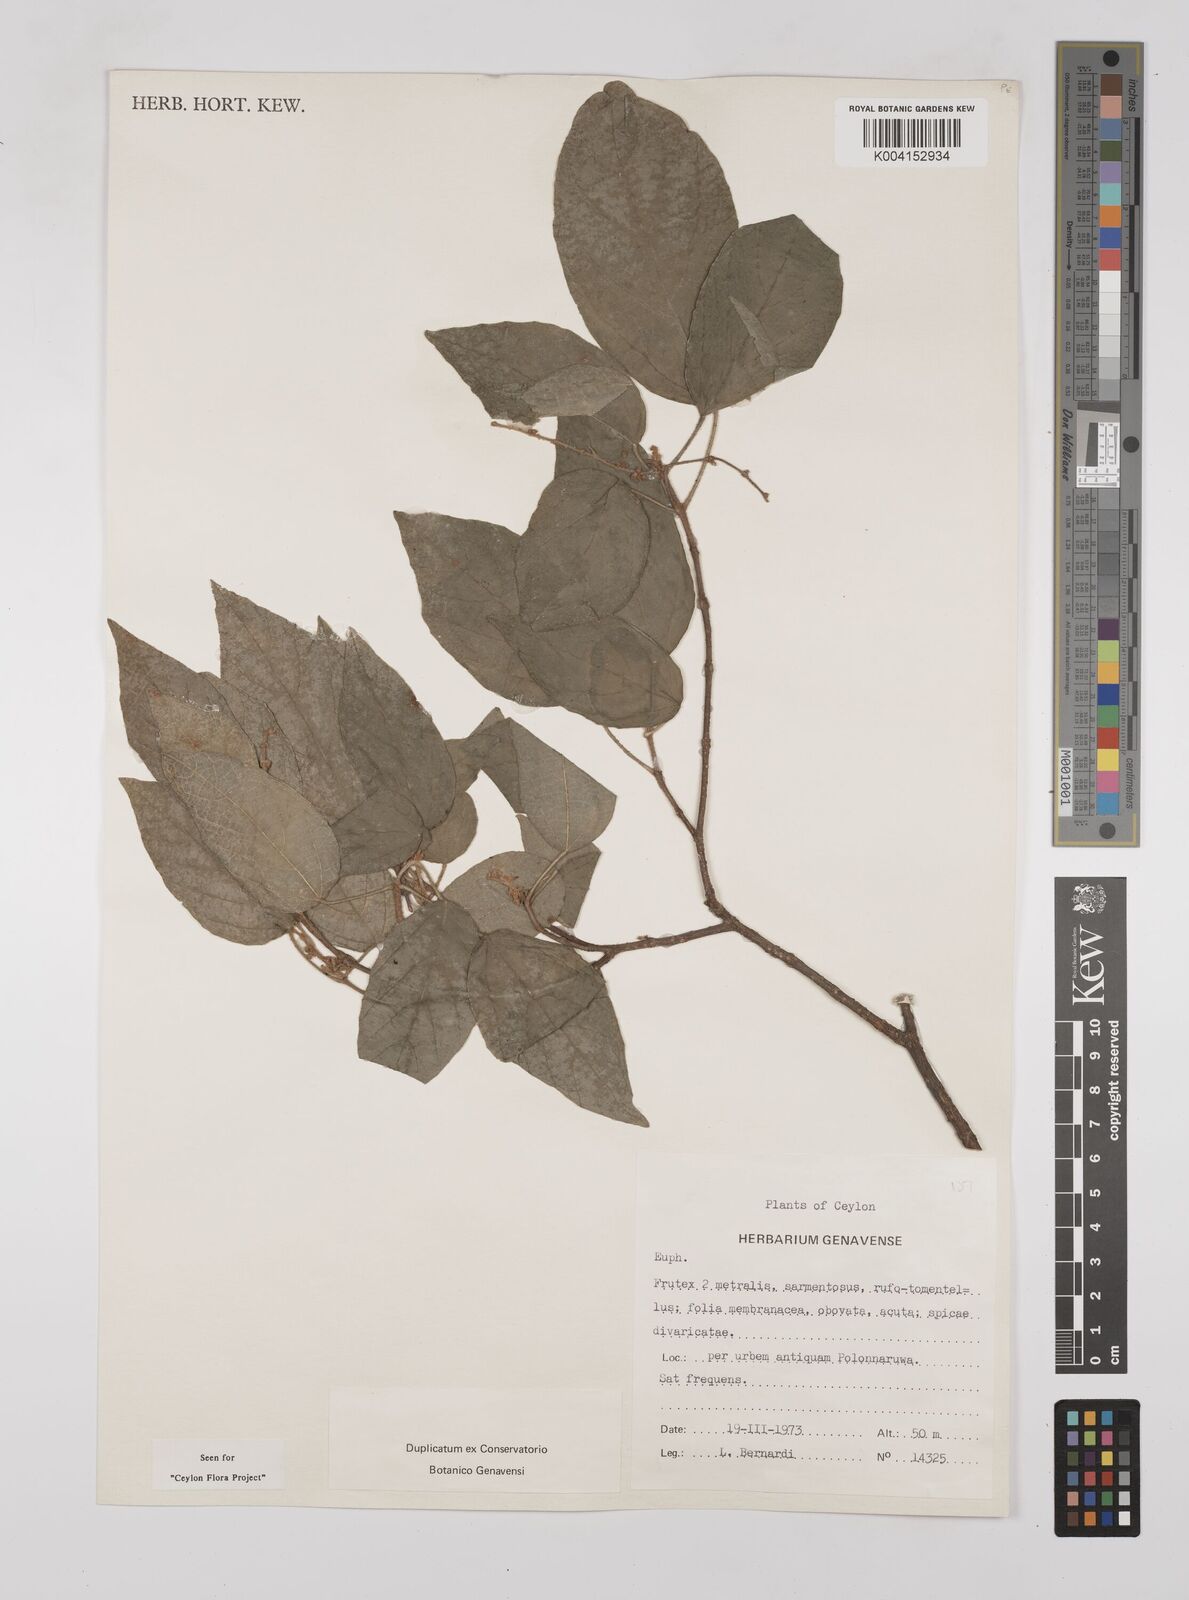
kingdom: Plantae
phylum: Tracheophyta
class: Magnoliopsida
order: Malpighiales
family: Euphorbiaceae
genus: Mallotus
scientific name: Mallotus eriocarpus
